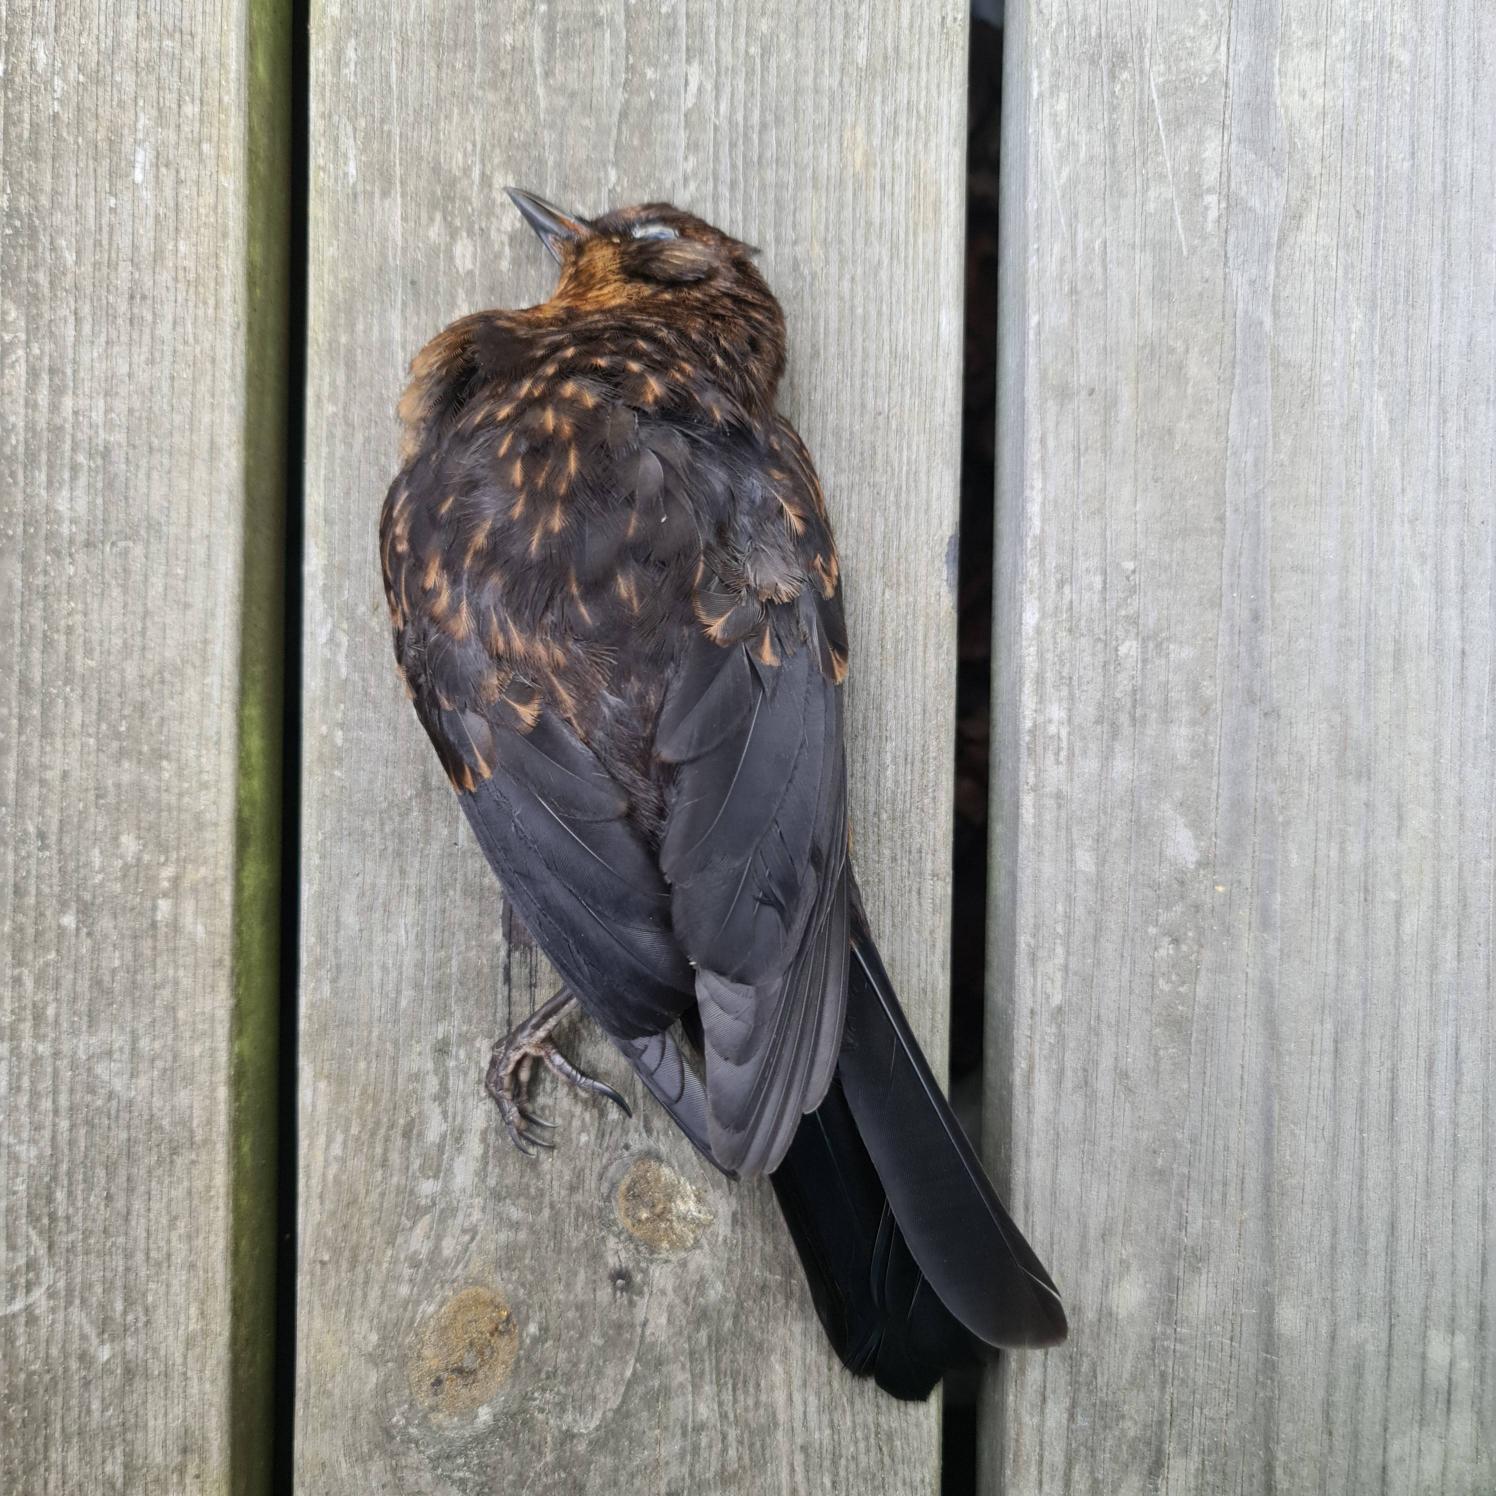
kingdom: Animalia
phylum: Chordata
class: Aves
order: Passeriformes
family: Turdidae
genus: Turdus
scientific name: Turdus merula
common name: Solsort
